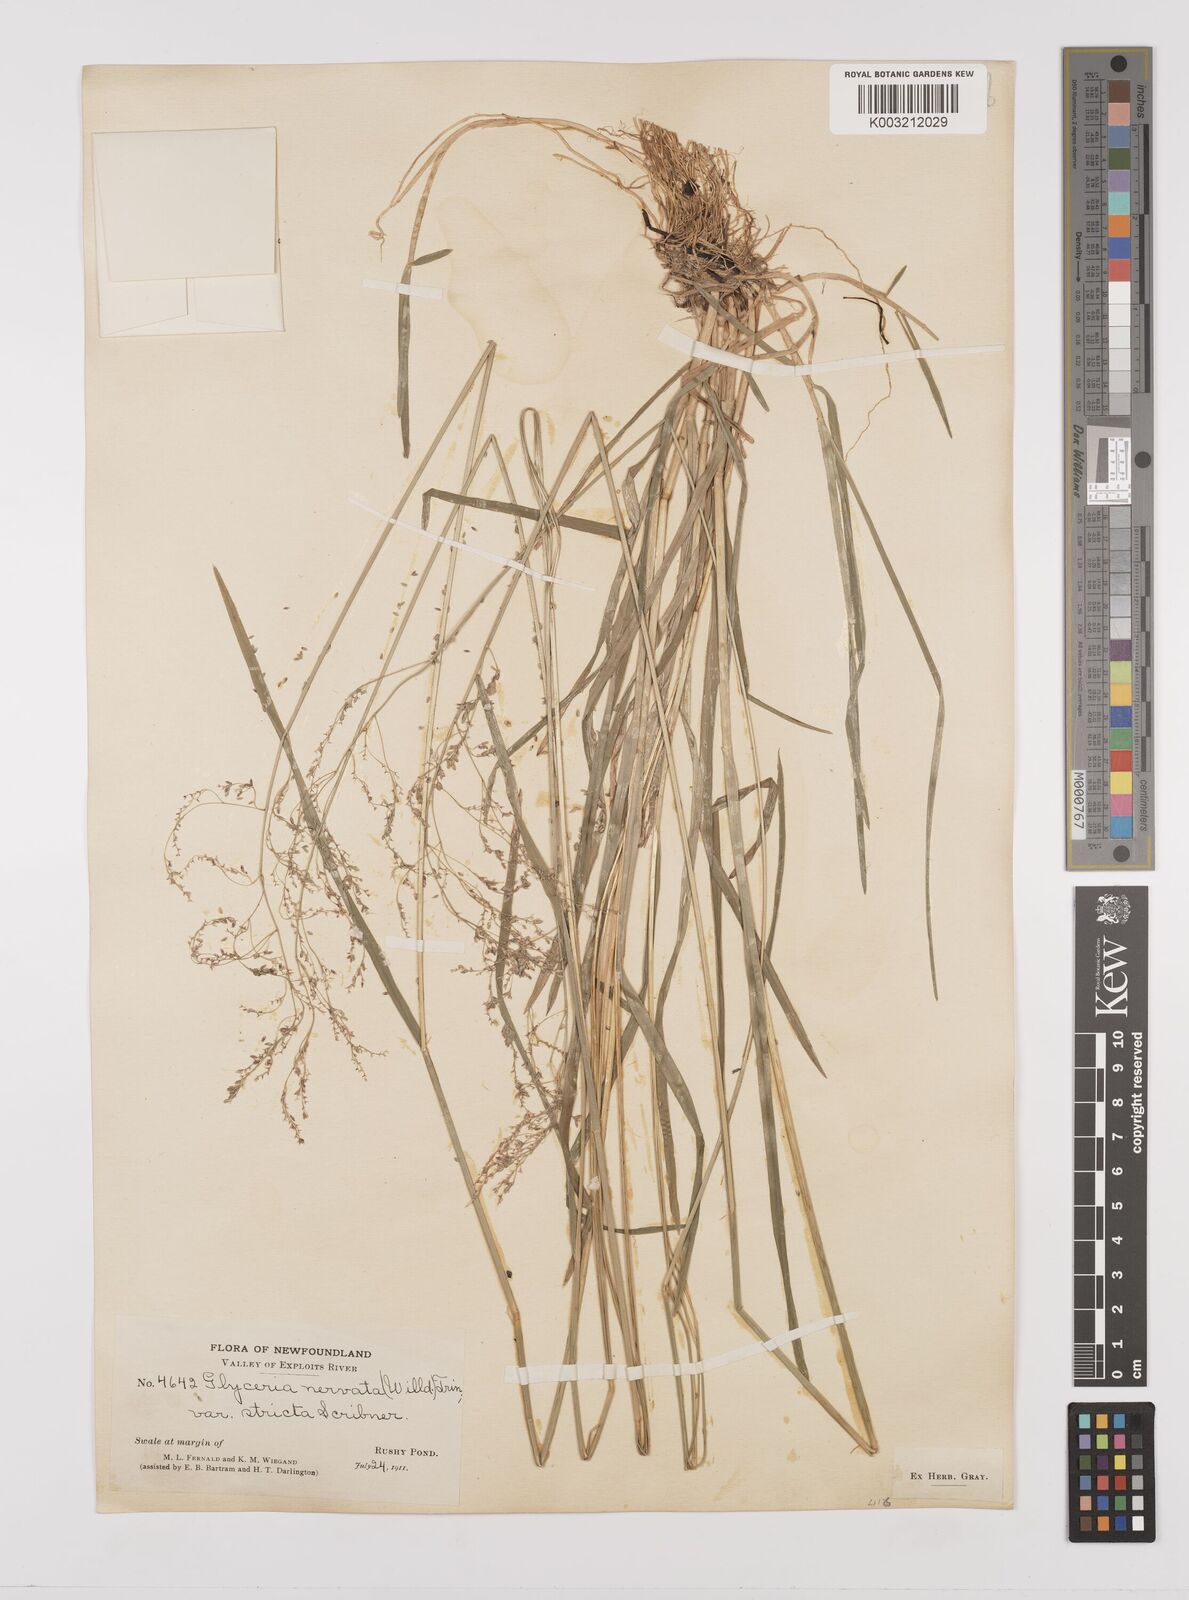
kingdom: Plantae
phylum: Tracheophyta
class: Liliopsida
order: Poales
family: Poaceae
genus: Glyceria
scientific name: Glyceria striata
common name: Fowl manna grass
